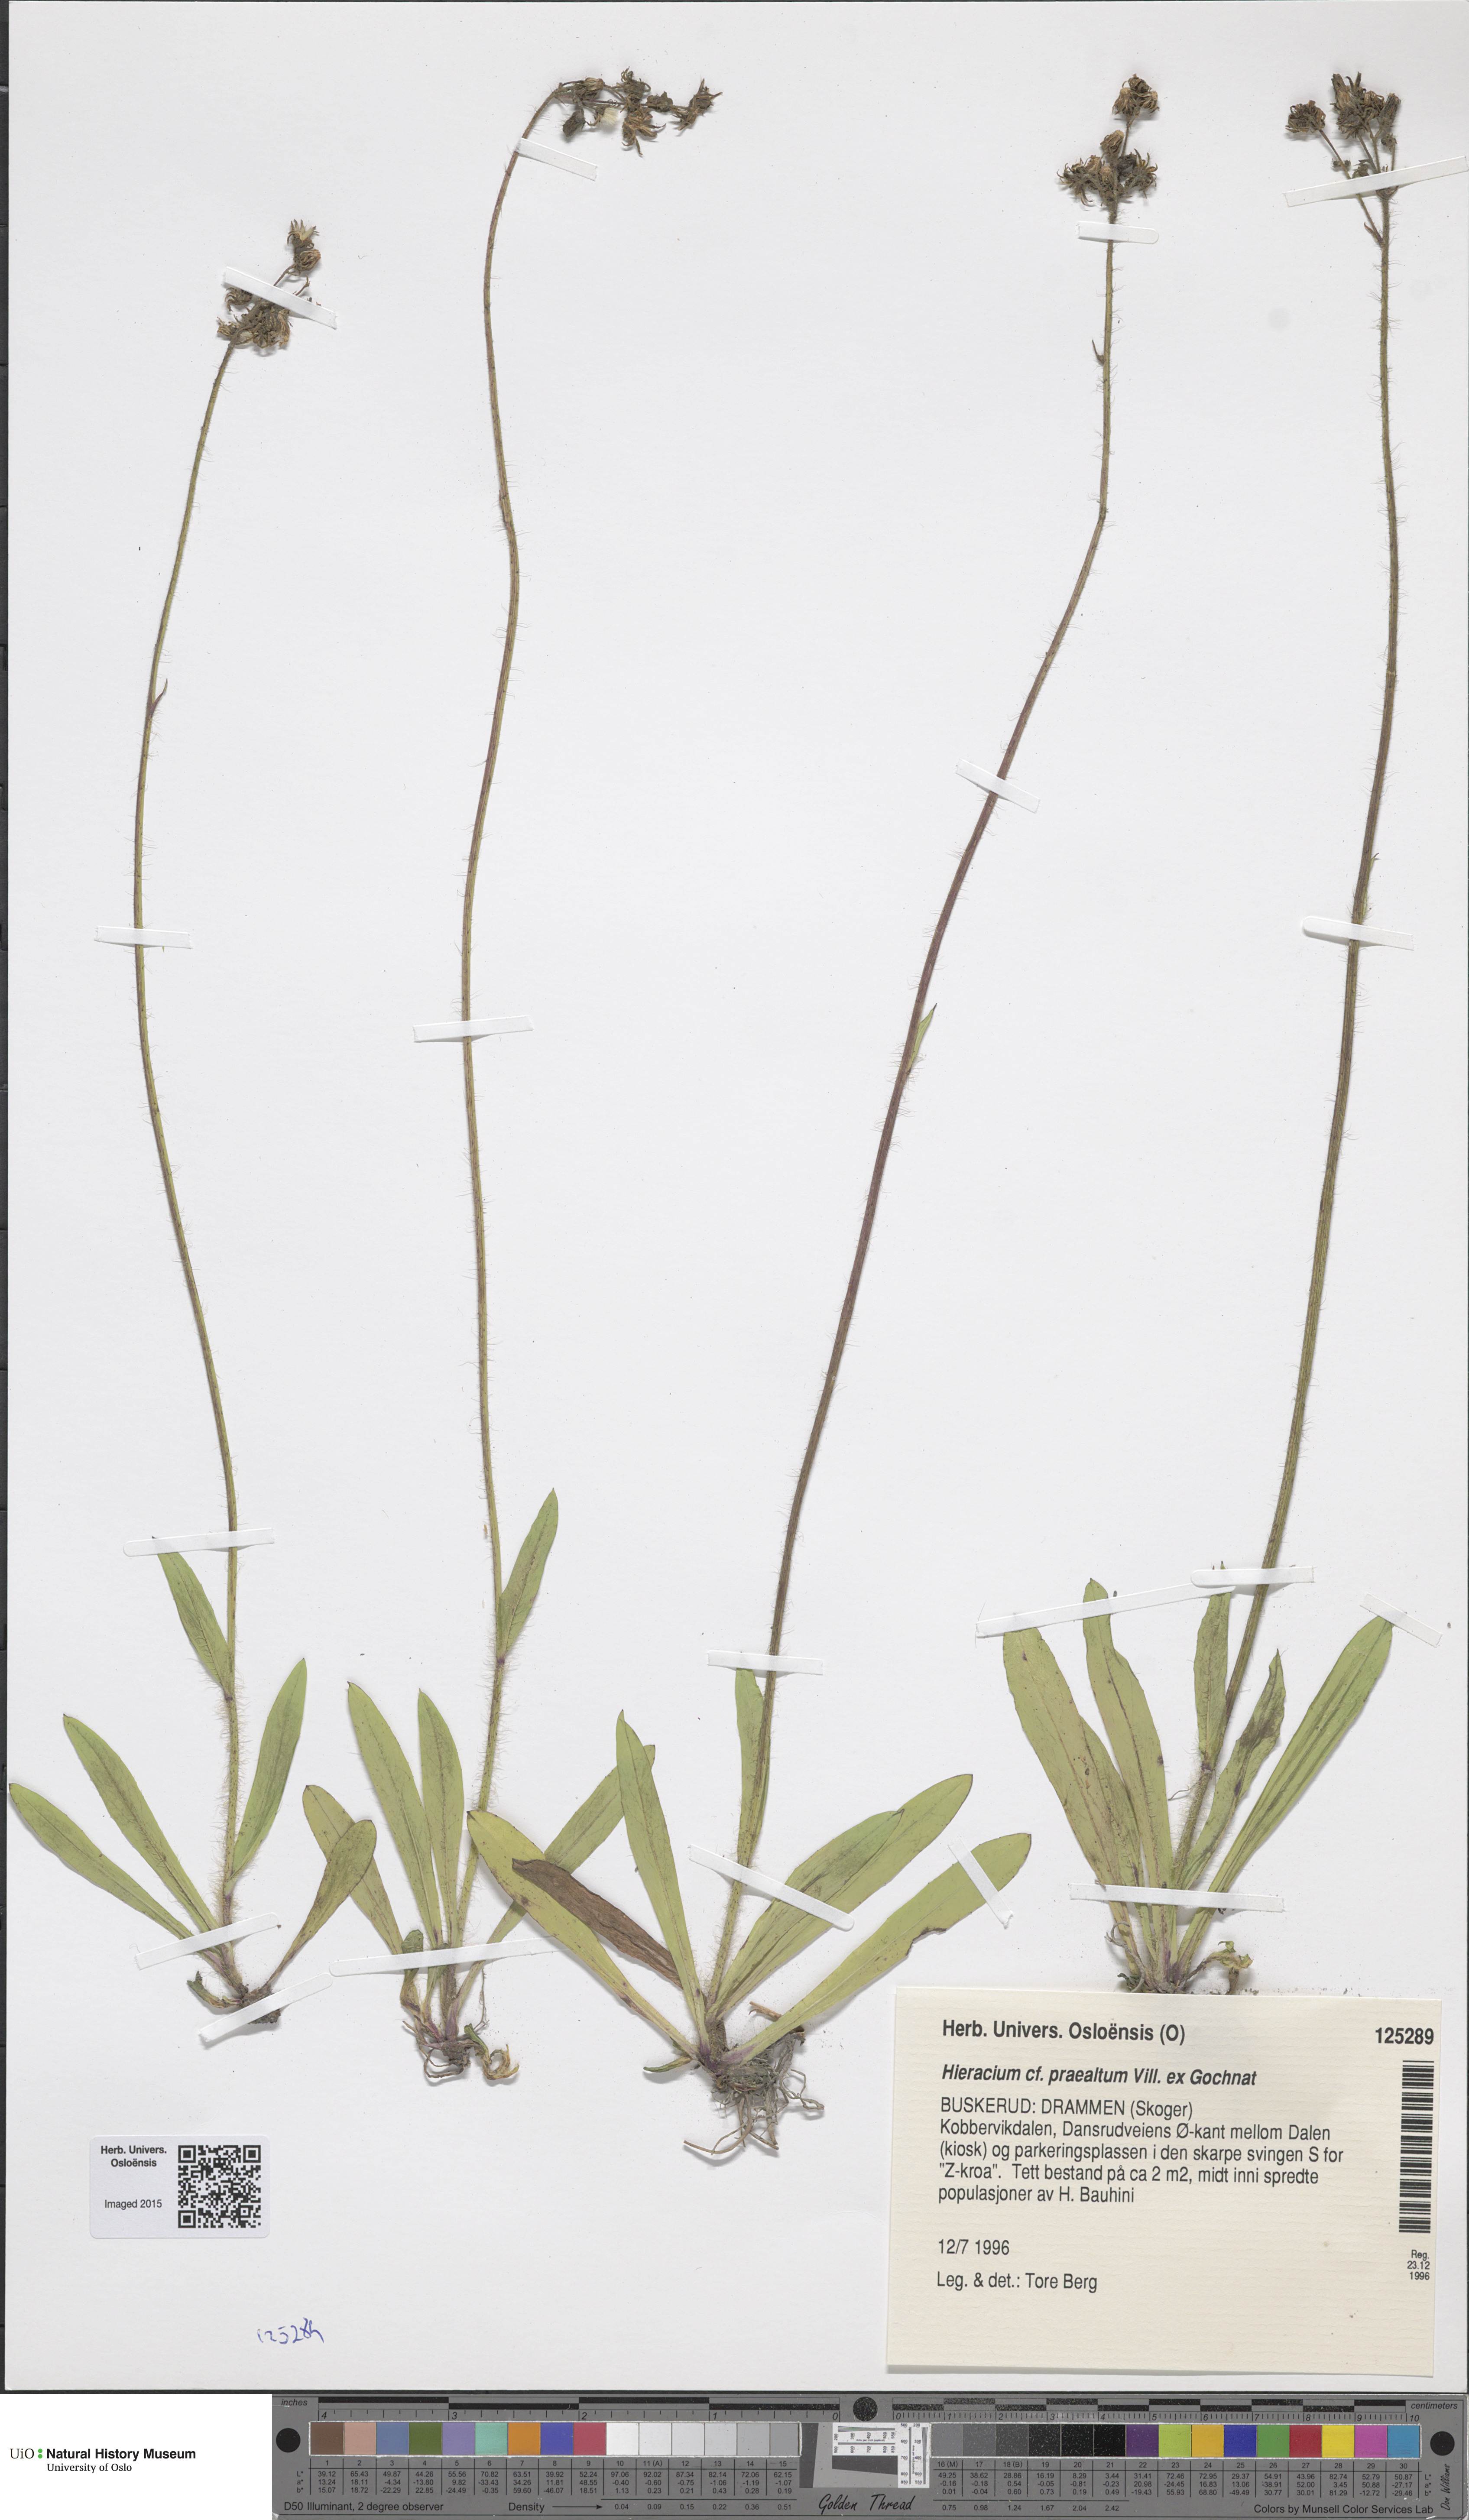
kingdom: Plantae
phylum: Tracheophyta
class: Magnoliopsida
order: Asterales
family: Asteraceae
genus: Pilosella
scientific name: Pilosella piloselloides
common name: Glaucous king-devil
